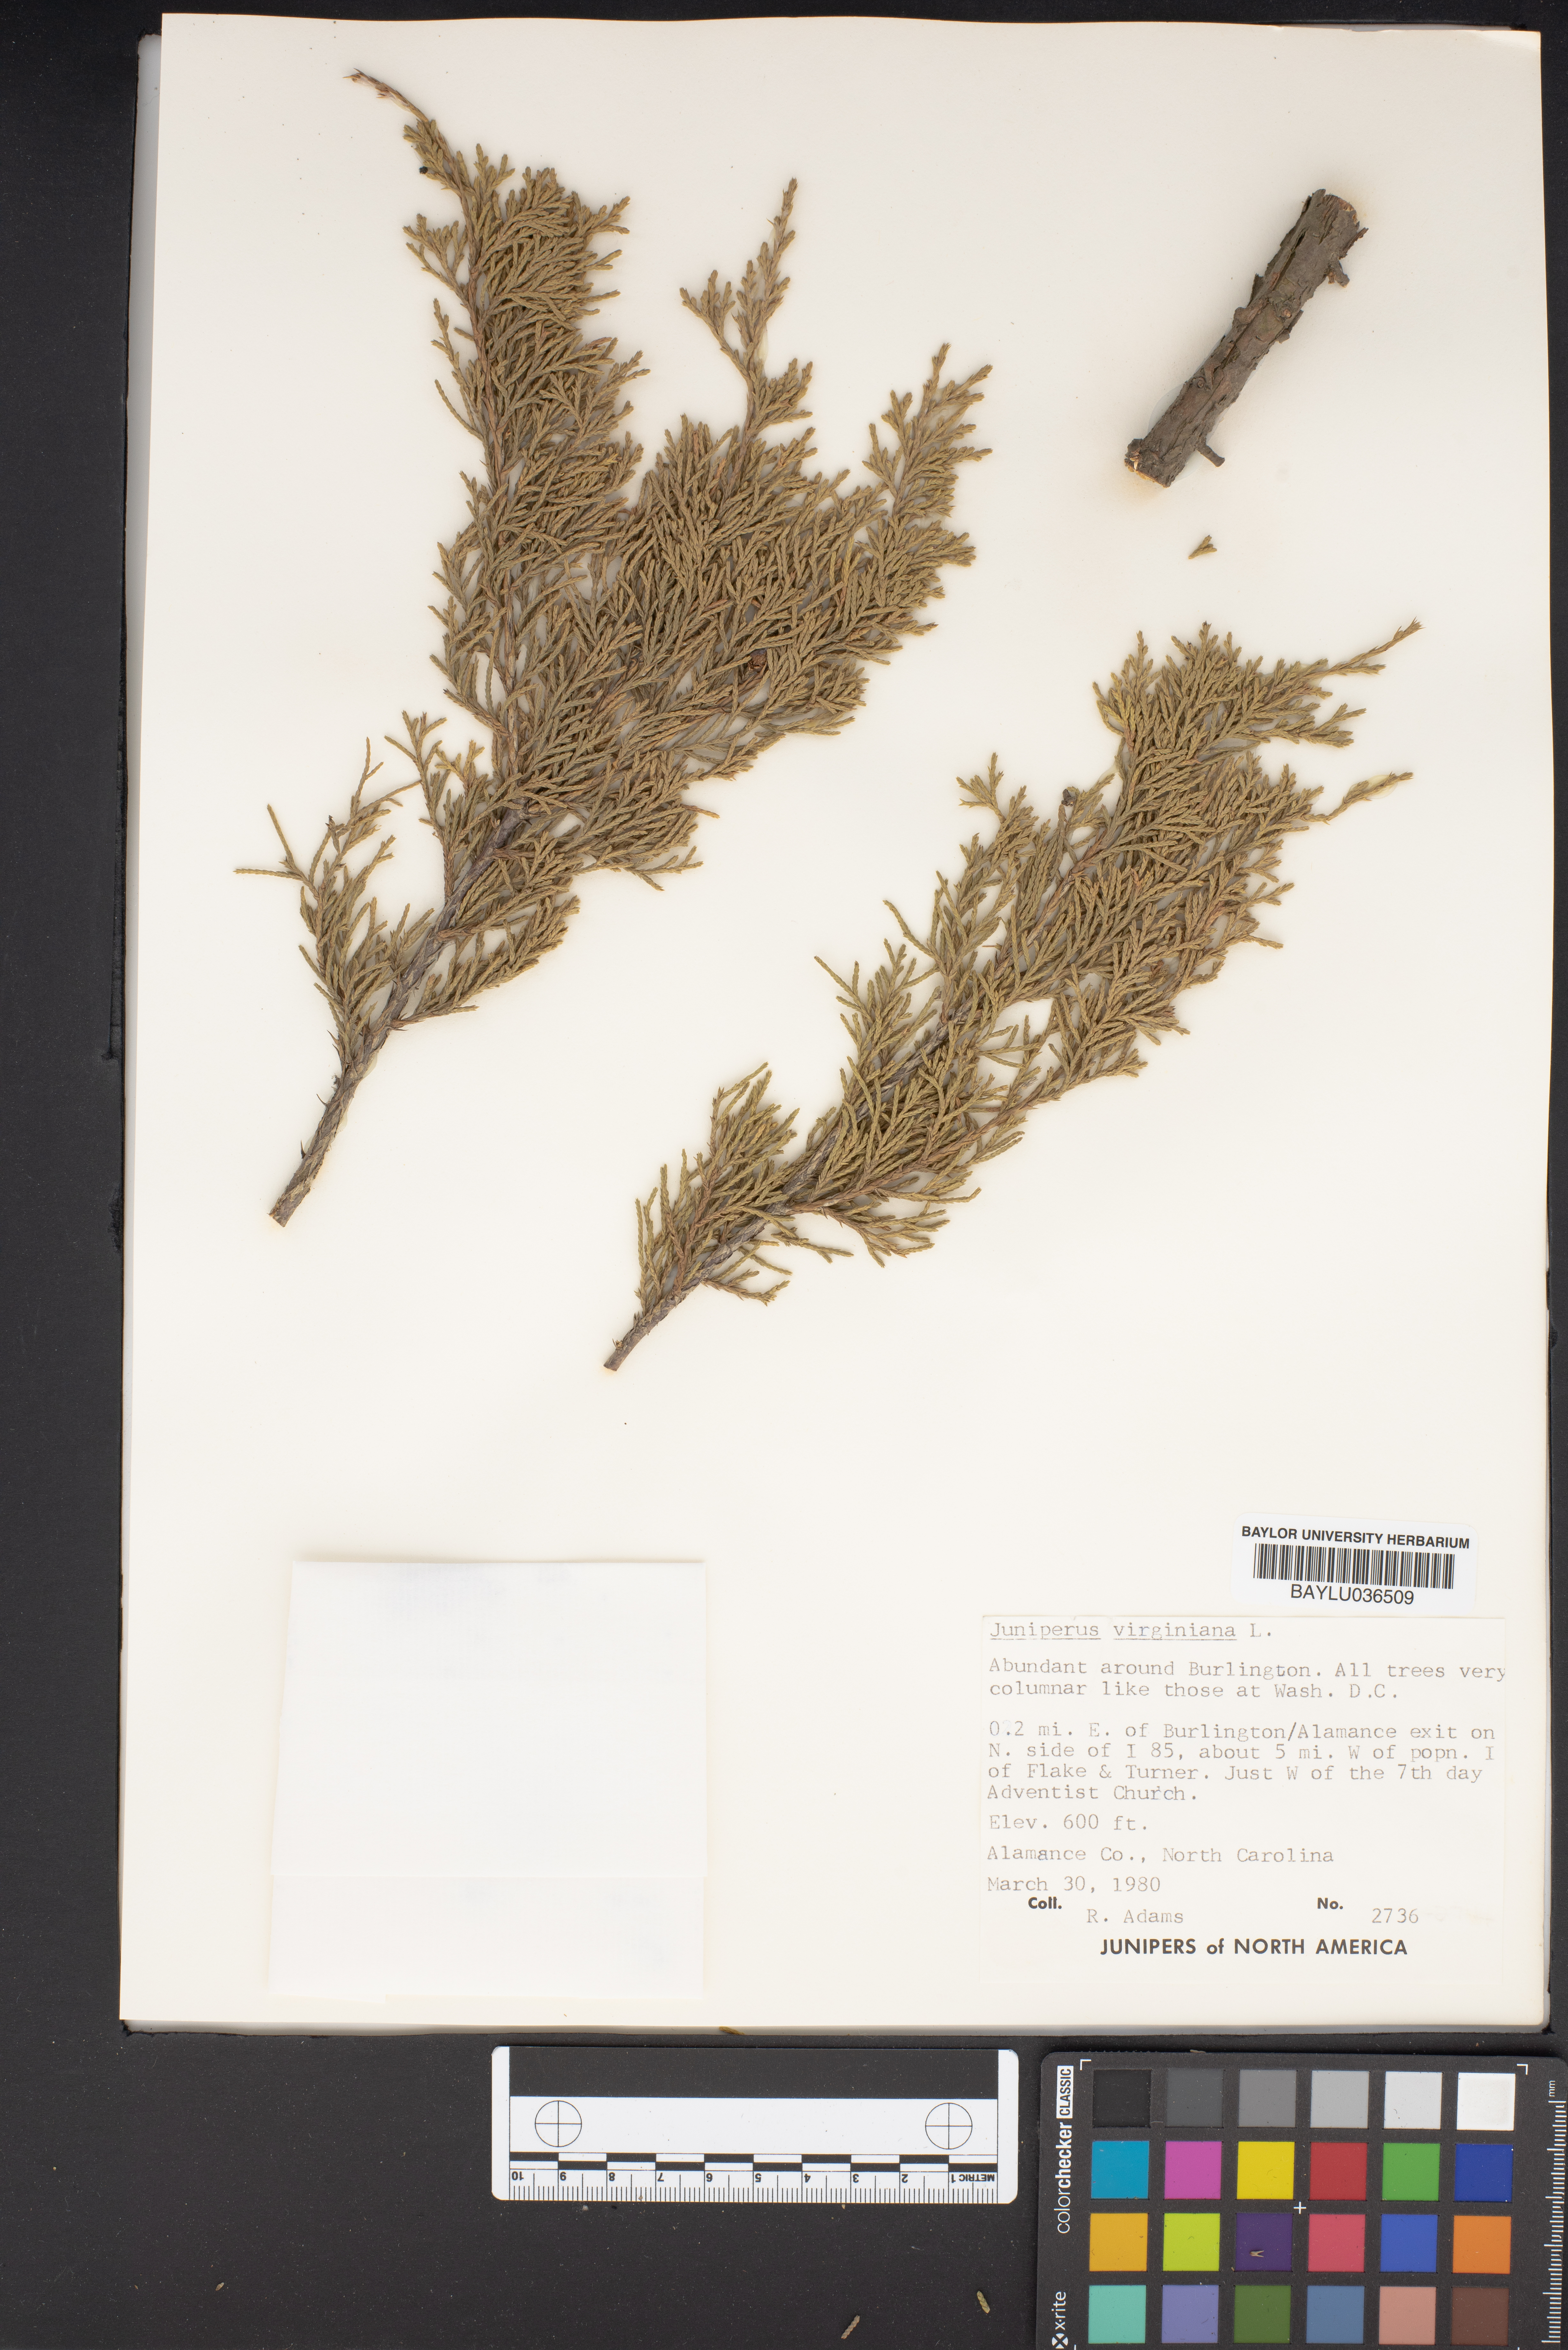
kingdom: Plantae
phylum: Tracheophyta
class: Pinopsida
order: Pinales
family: Cupressaceae
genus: Juniperus
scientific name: Juniperus virginiana
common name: Red juniper
